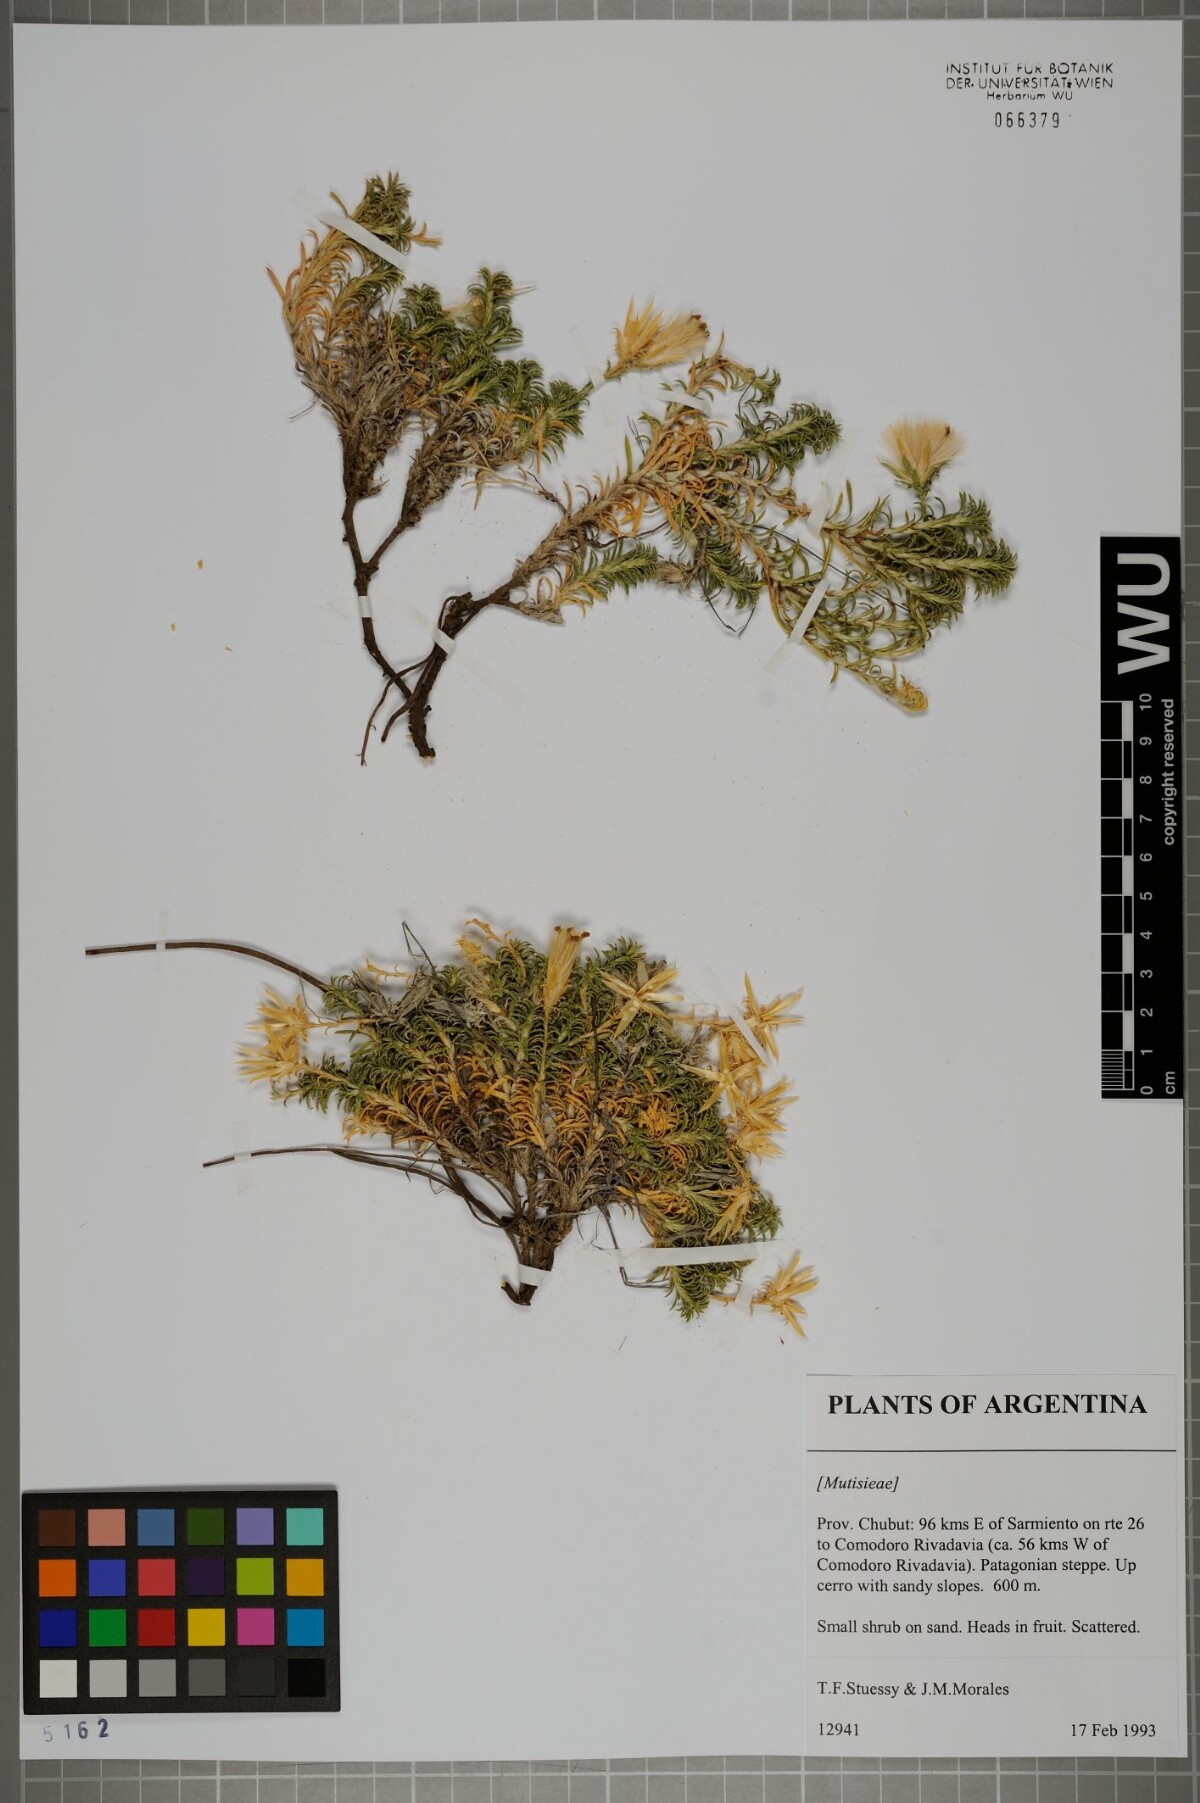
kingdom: Plantae
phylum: Tracheophyta
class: Magnoliopsida
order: Asterales
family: Asteraceae
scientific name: Asteraceae
